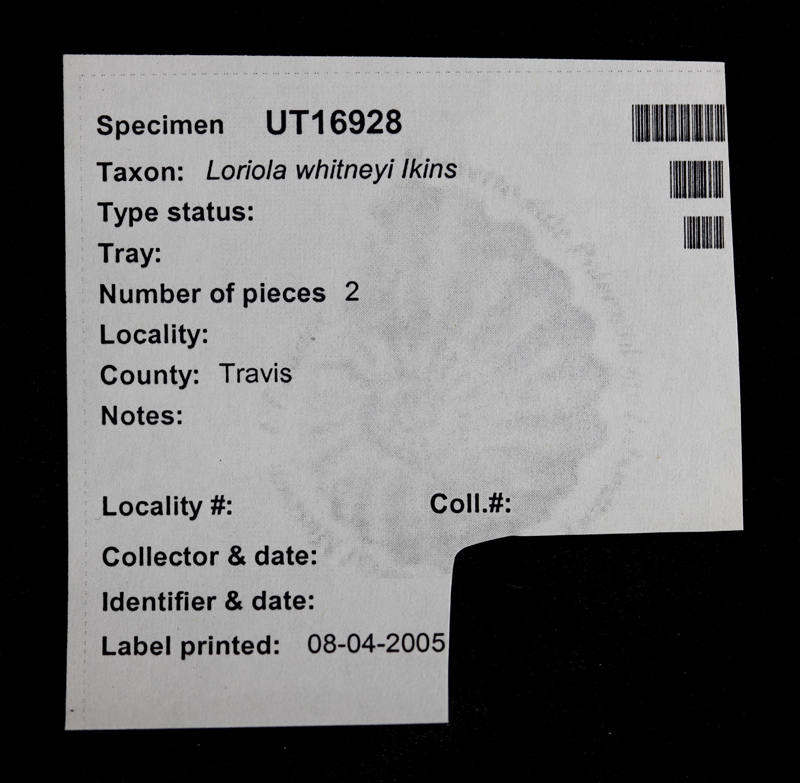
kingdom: Animalia
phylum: Echinodermata
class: Echinoidea
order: Phymosomatoida
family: Emiratiidae
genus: Loriolia
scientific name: Loriolia
